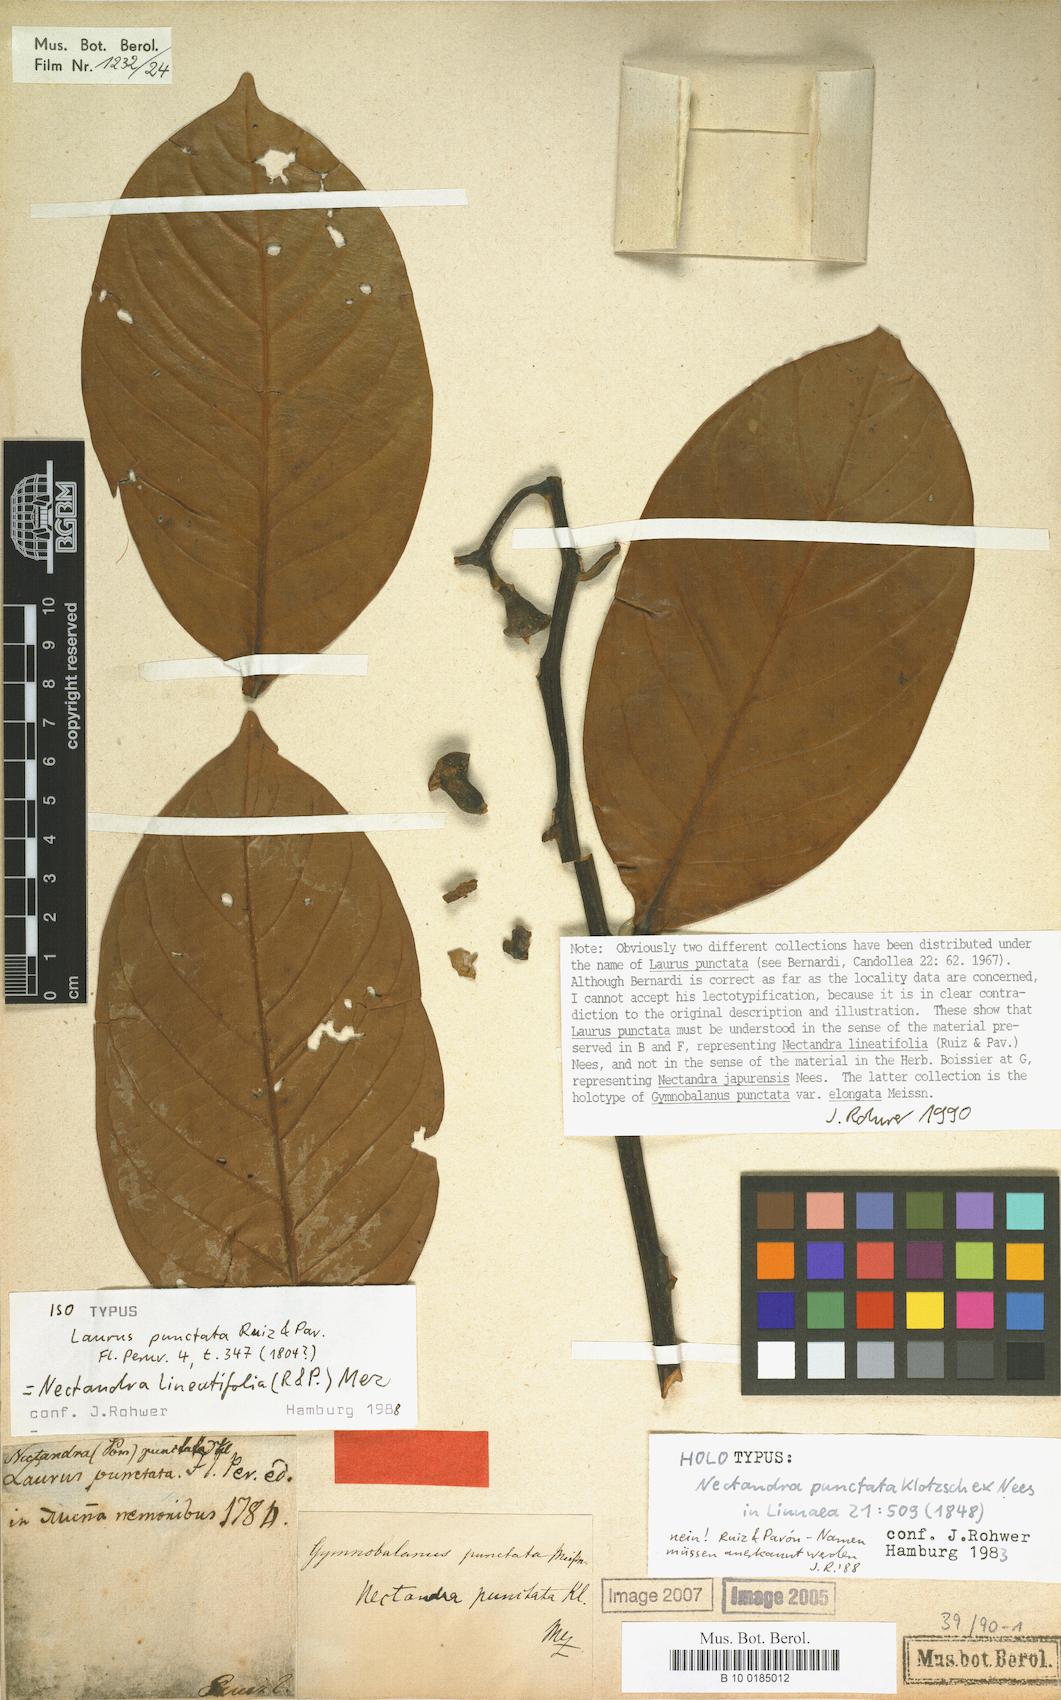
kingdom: Plantae
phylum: Tracheophyta
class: Magnoliopsida
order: Laurales
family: Lauraceae
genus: Nectandra
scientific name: Nectandra lineatifolia
